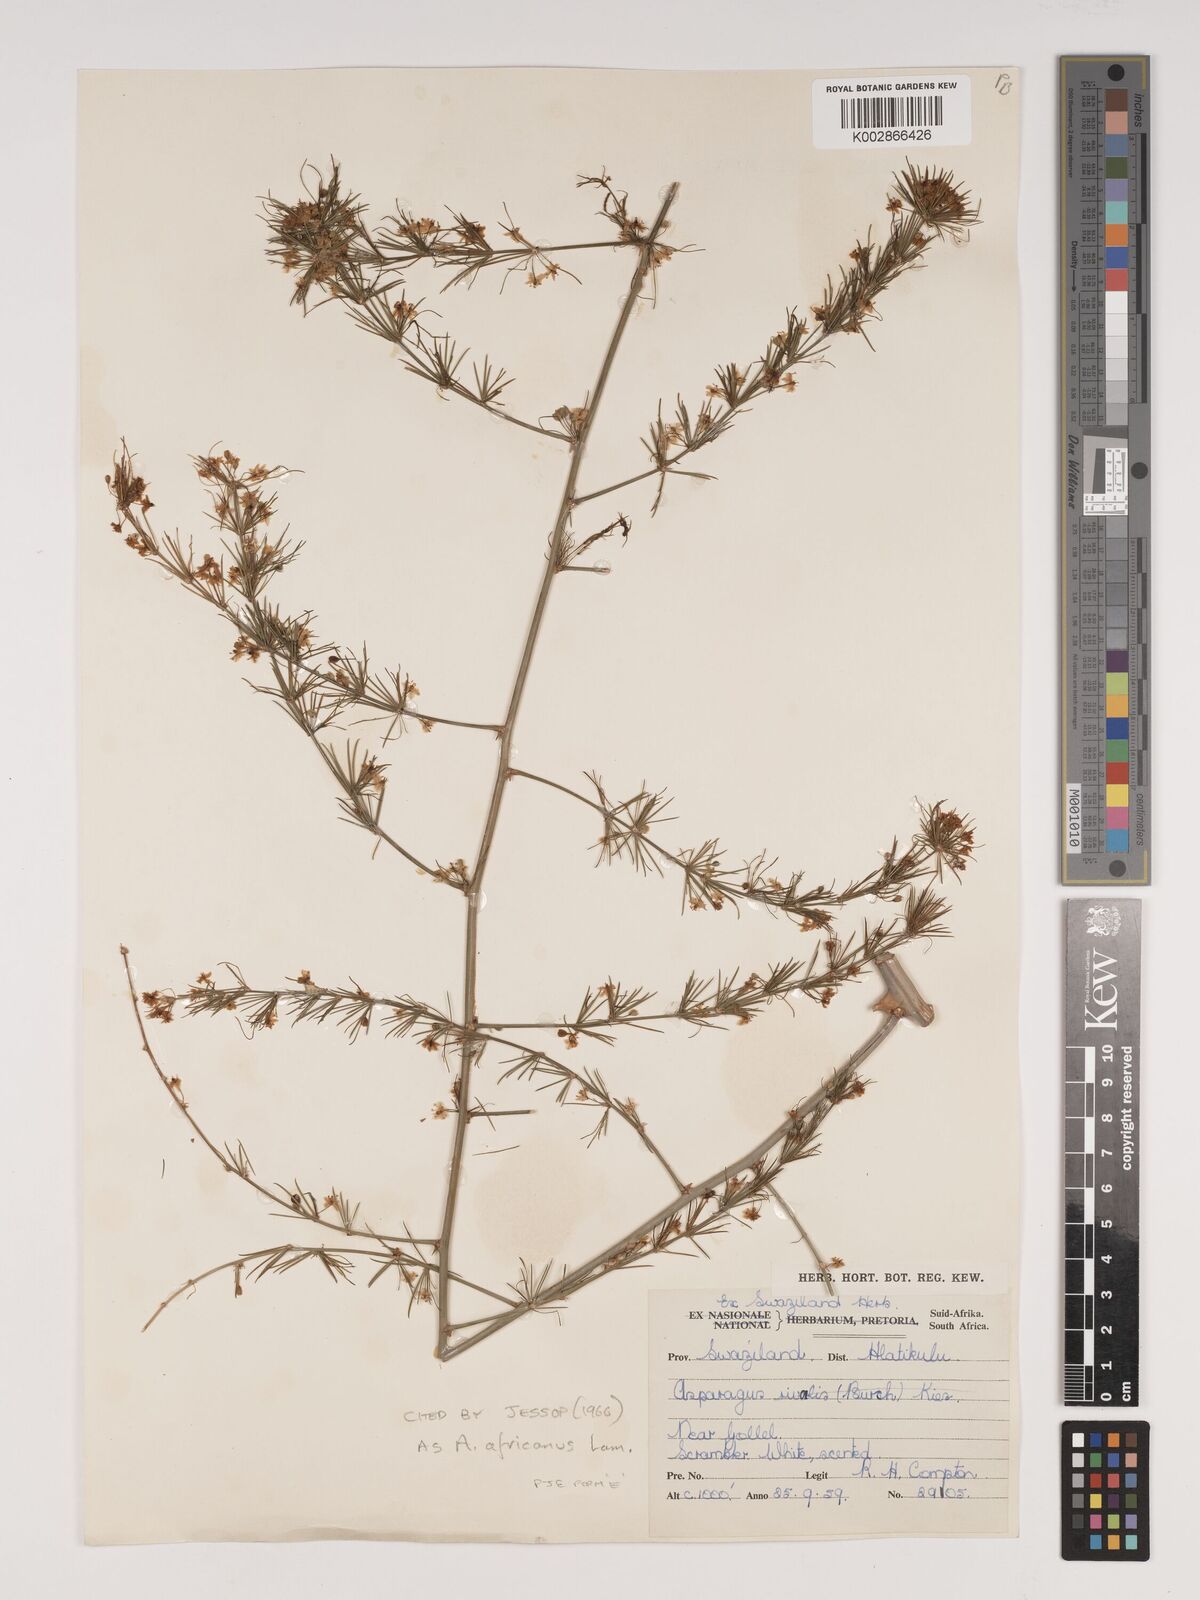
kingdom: Plantae
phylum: Tracheophyta
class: Liliopsida
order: Asparagales
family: Asparagaceae
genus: Asparagus
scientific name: Asparagus africanus
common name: Asparagus-fern
